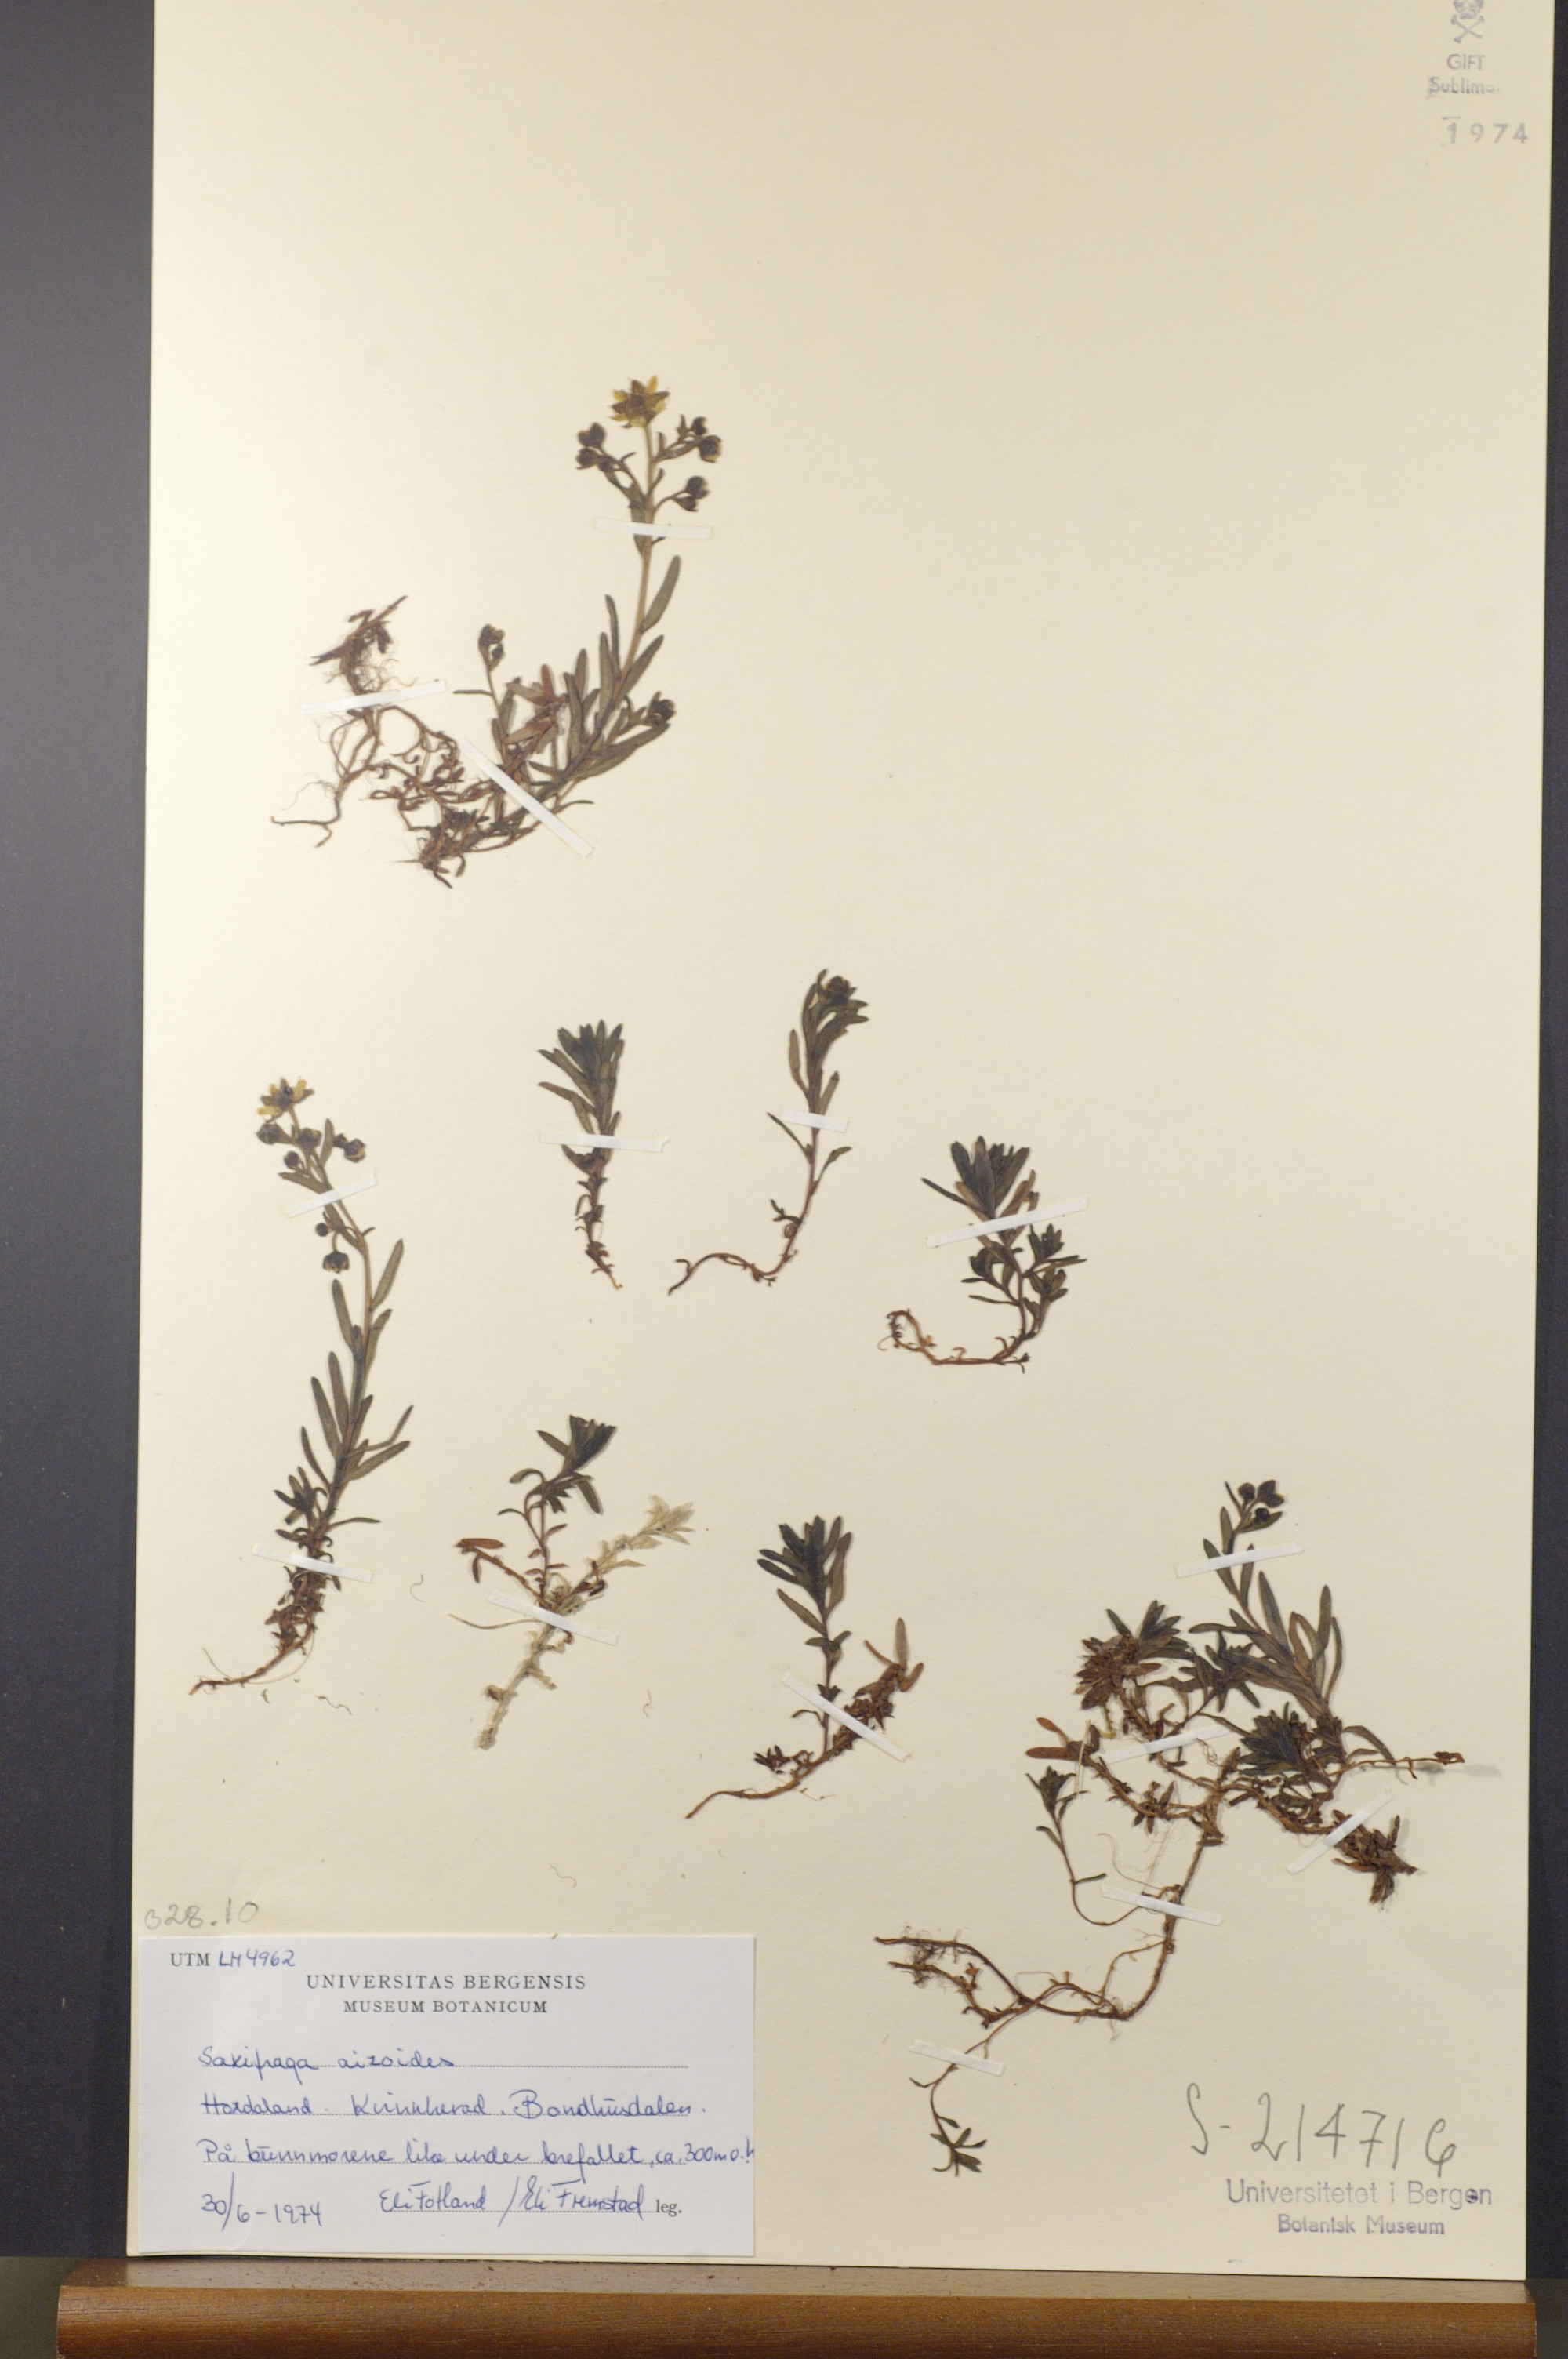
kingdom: Plantae
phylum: Tracheophyta
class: Magnoliopsida
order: Saxifragales
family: Saxifragaceae
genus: Saxifraga
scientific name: Saxifraga aizoides
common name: Yellow mountain saxifrage
